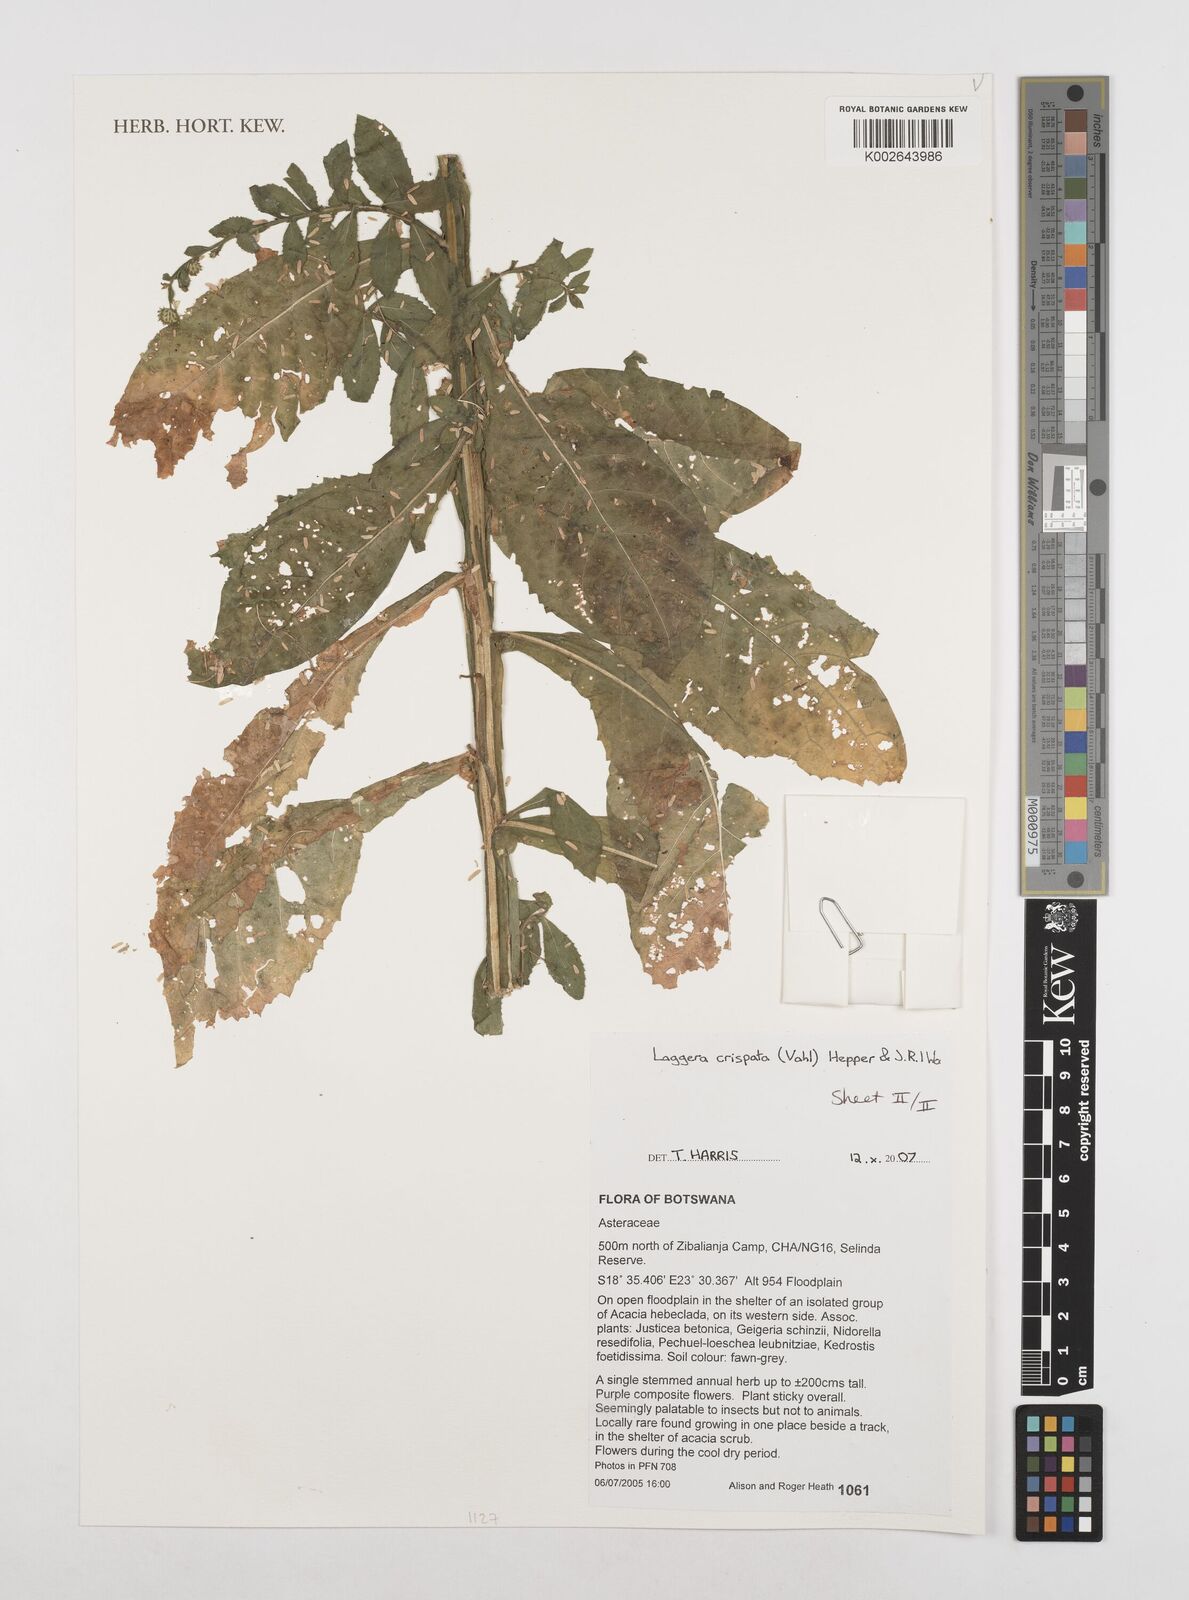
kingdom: Plantae
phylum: Tracheophyta
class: Magnoliopsida
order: Asterales
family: Asteraceae
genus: Laggera
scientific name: Laggera alata
